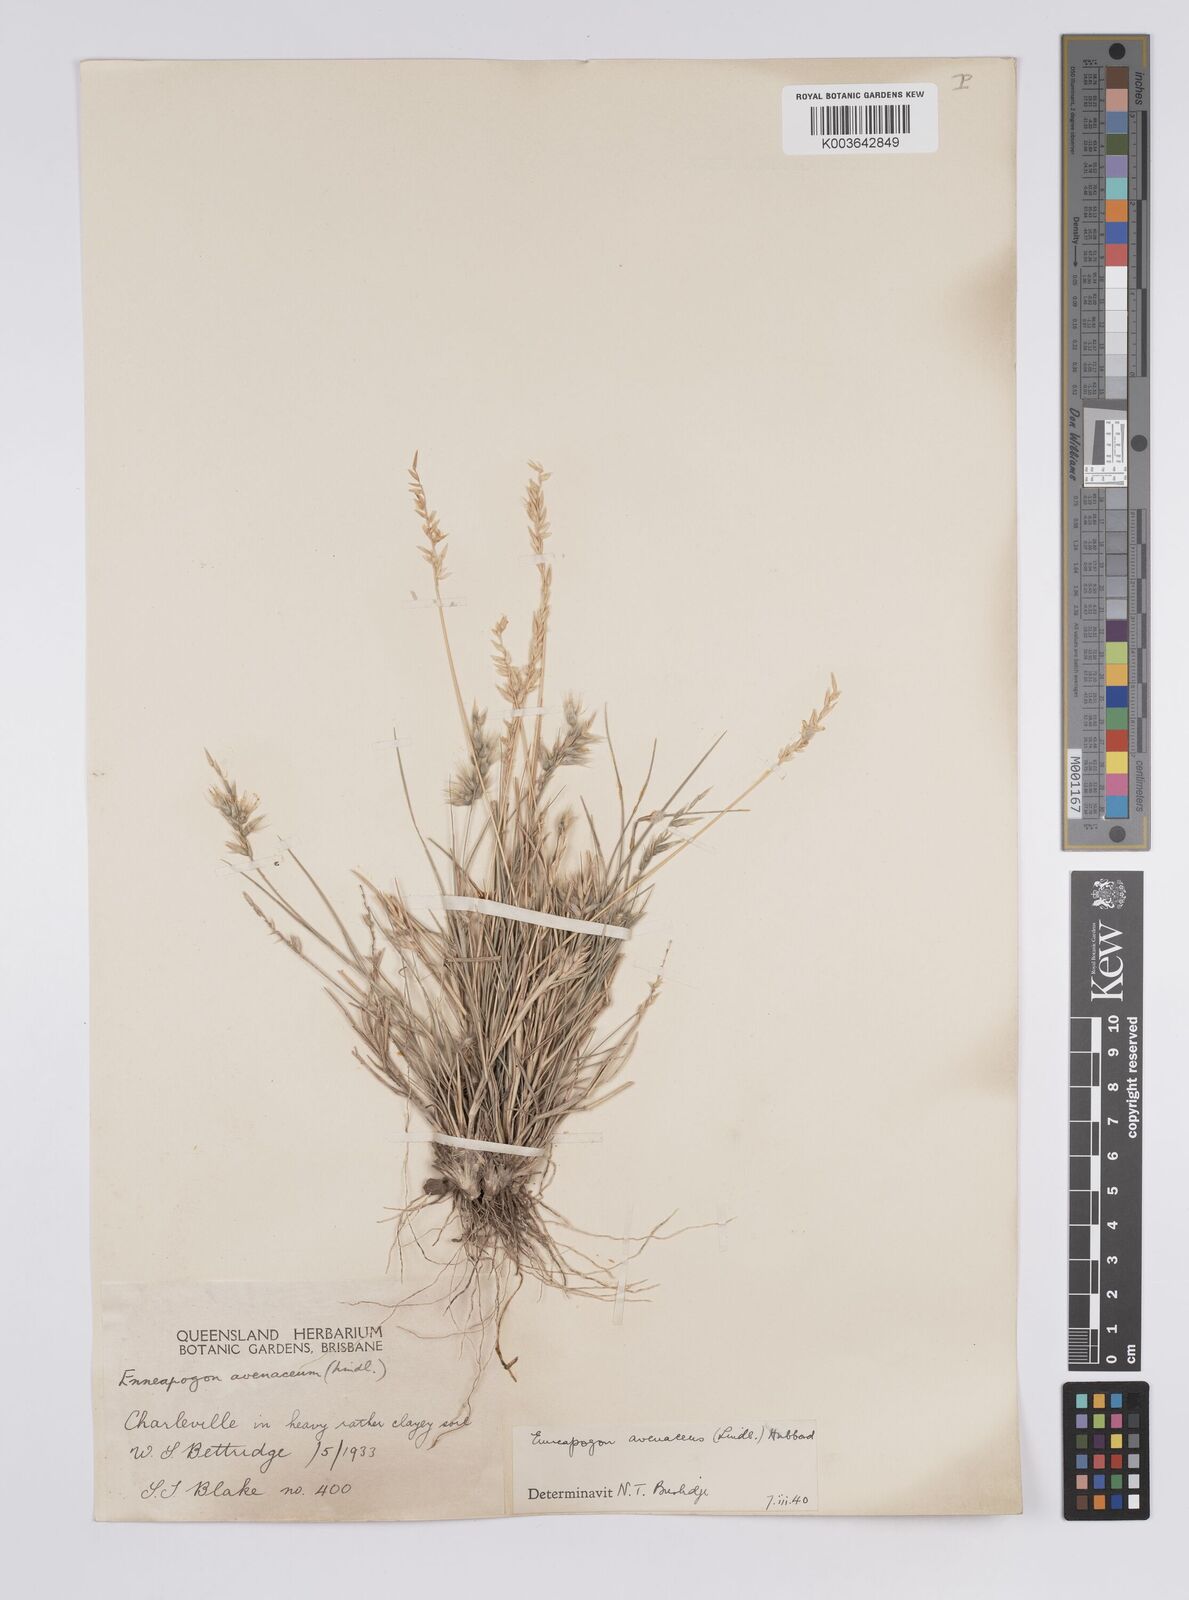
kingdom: Plantae
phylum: Tracheophyta
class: Liliopsida
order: Poales
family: Poaceae
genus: Enneapogon
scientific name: Enneapogon avenaceus
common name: Hairy oat grass
